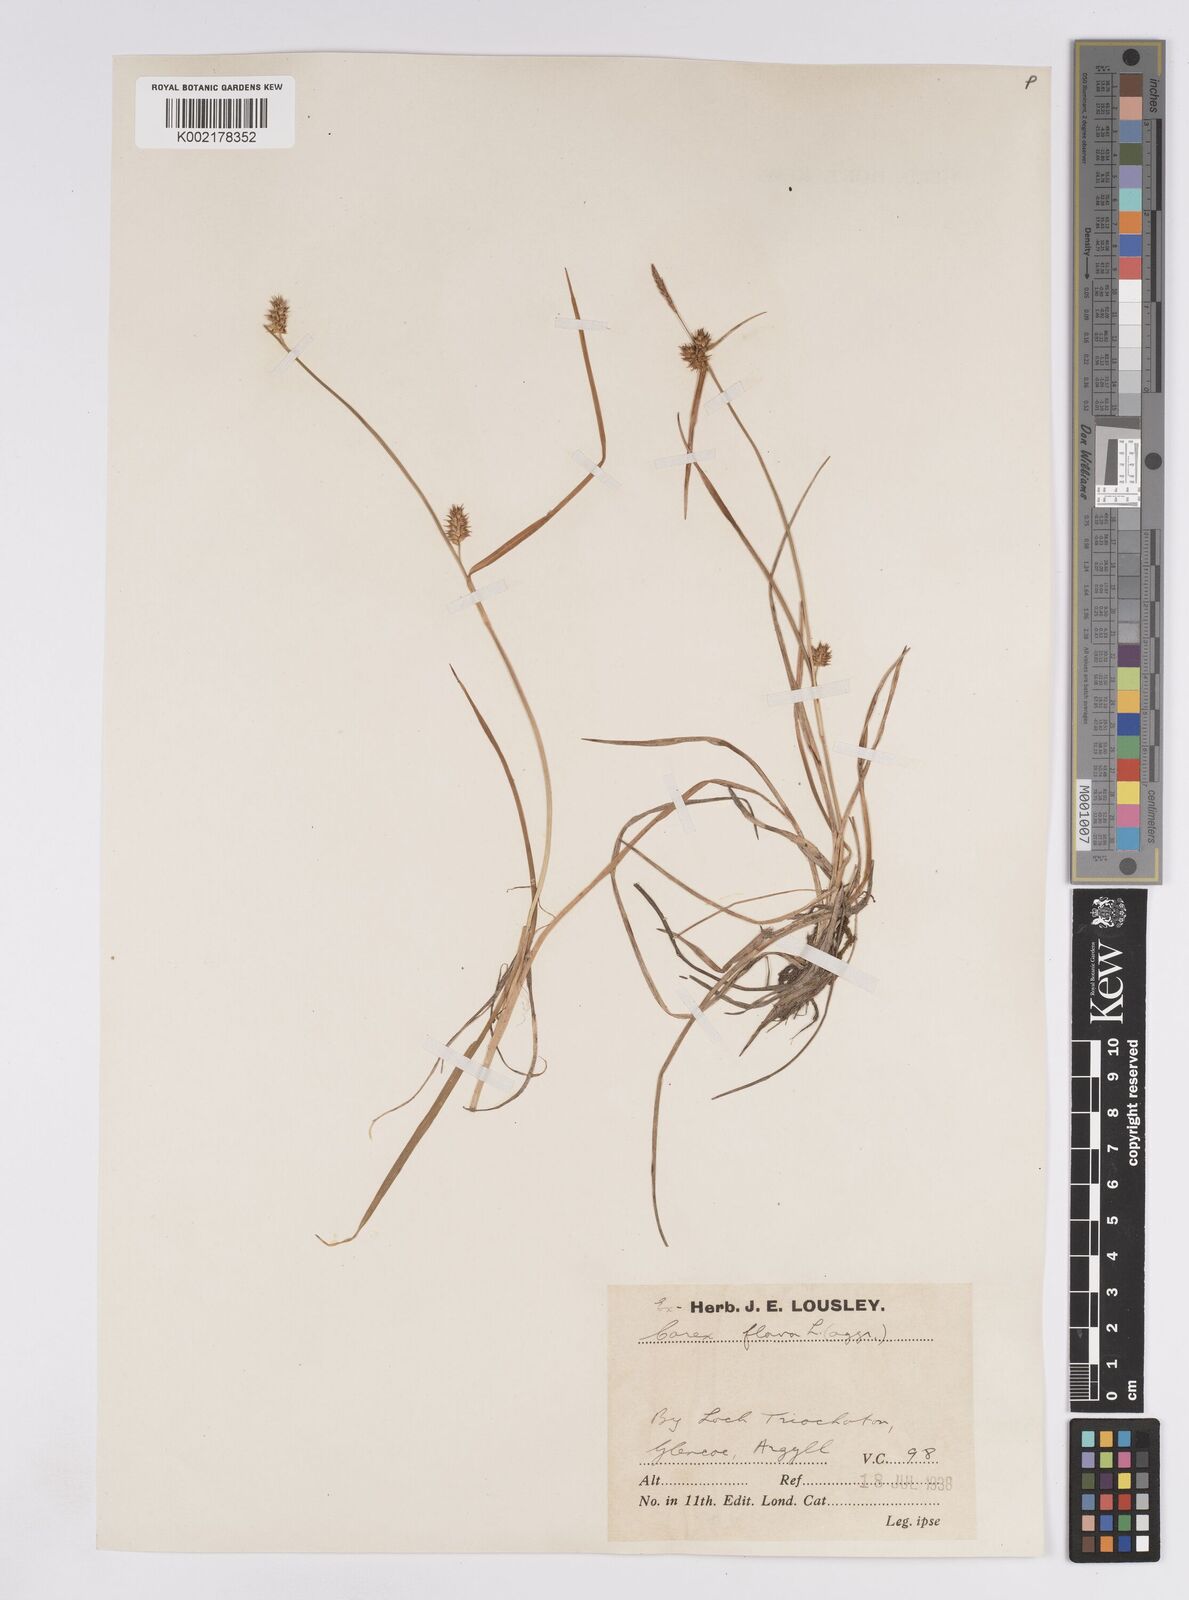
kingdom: Plantae
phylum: Tracheophyta
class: Liliopsida
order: Poales
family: Cyperaceae
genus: Carex
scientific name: Carex demissa
